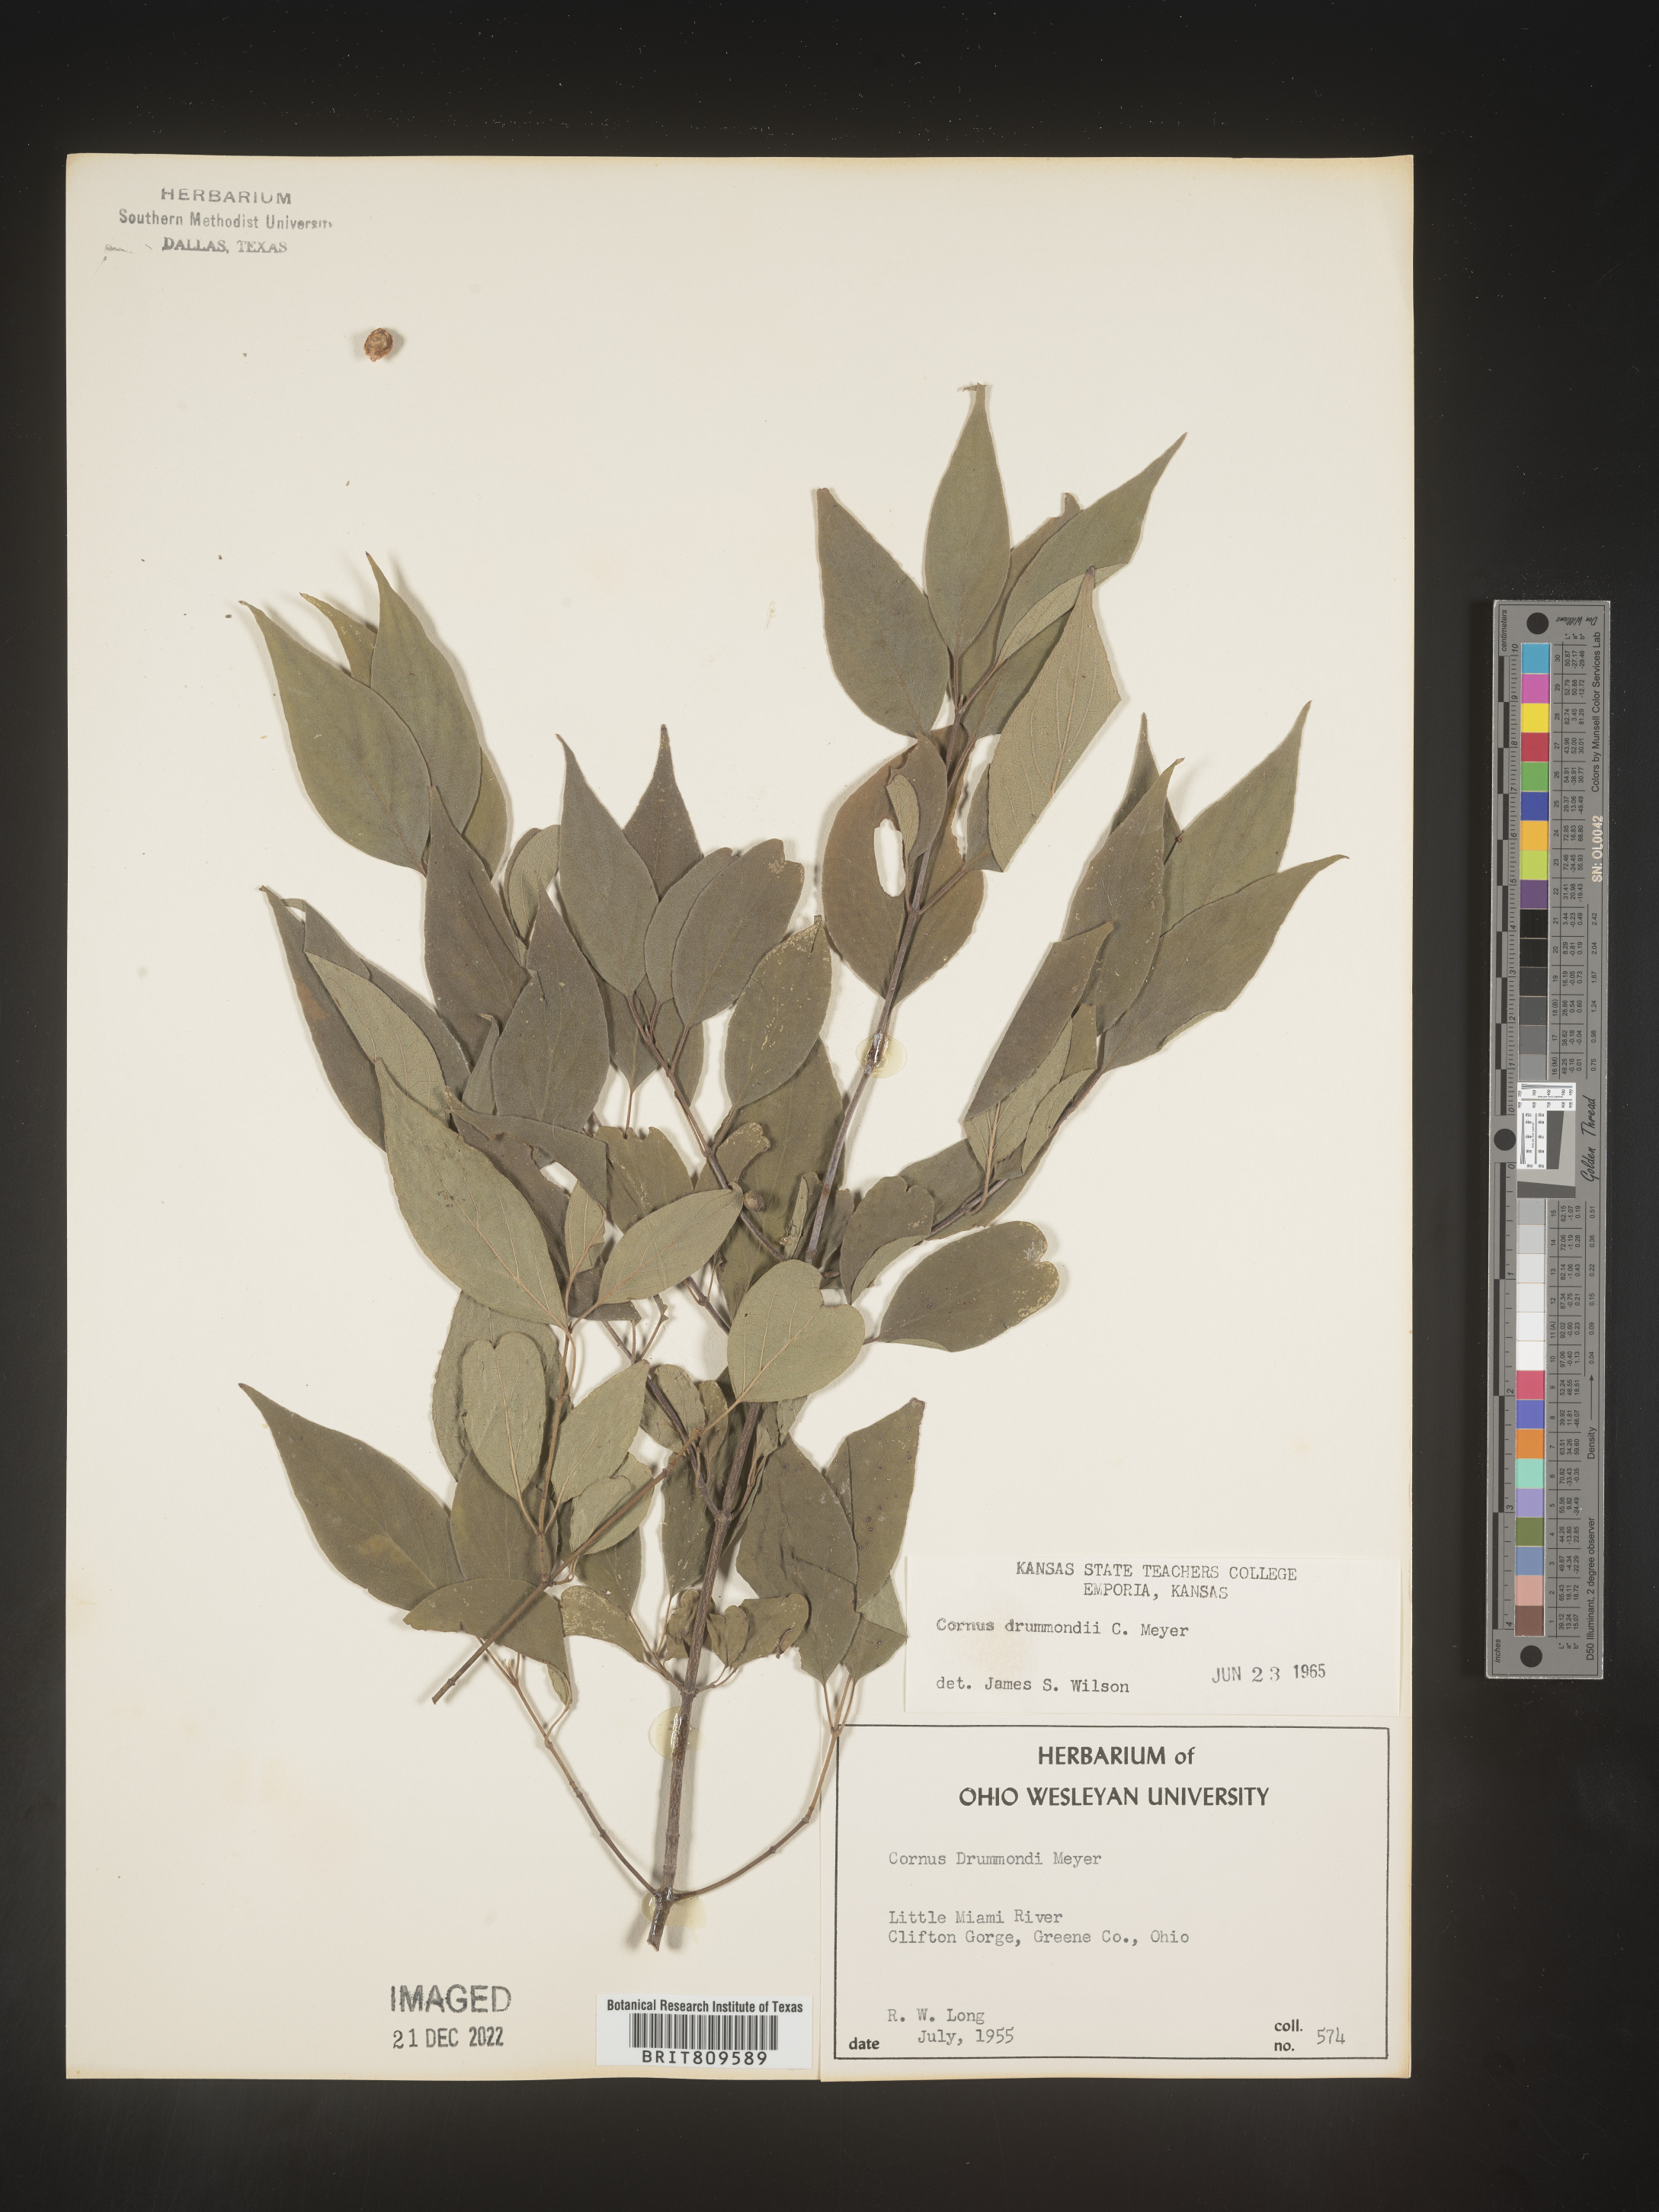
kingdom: Plantae
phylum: Tracheophyta
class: Magnoliopsida
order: Cornales
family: Cornaceae
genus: Cornus
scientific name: Cornus drummondii
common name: Rough-leaf dogwood
